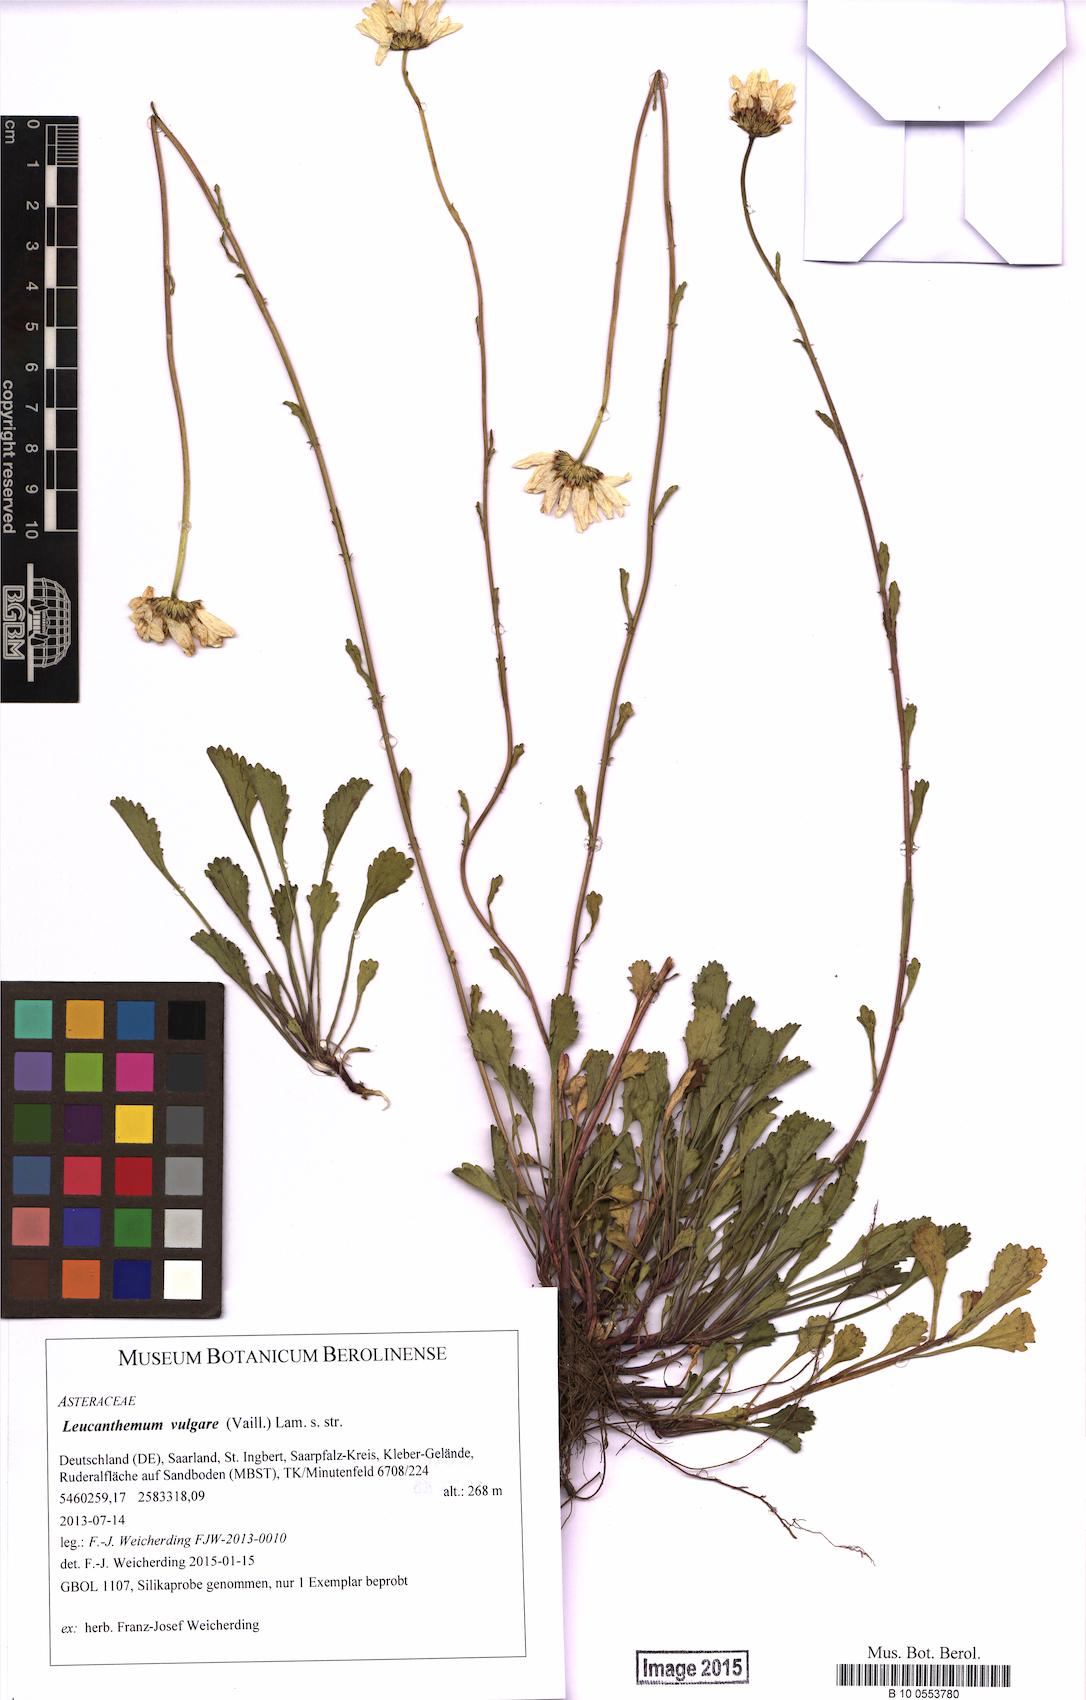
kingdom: Plantae
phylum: Tracheophyta
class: Magnoliopsida
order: Asterales
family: Asteraceae
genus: Leucanthemum
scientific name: Leucanthemum vulgare
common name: Oxeye daisy
